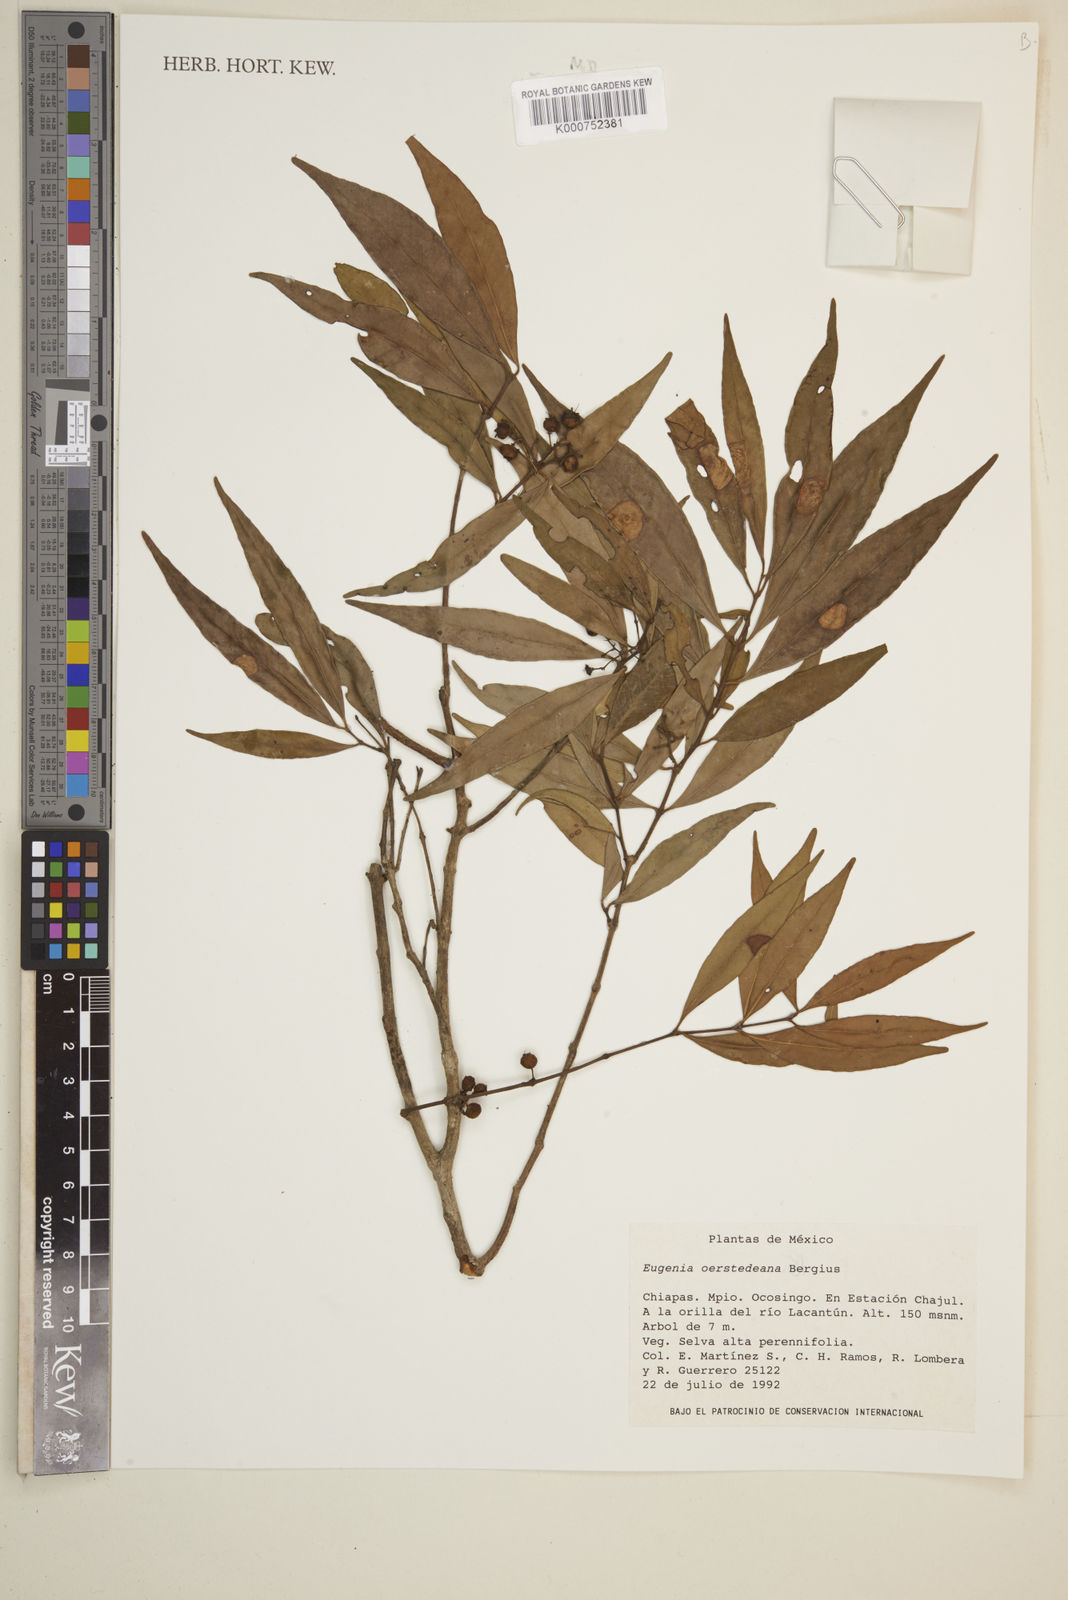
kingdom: Plantae
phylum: Tracheophyta
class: Magnoliopsida
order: Myrtales
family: Myrtaceae
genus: Eugenia
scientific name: Eugenia oerstediana
